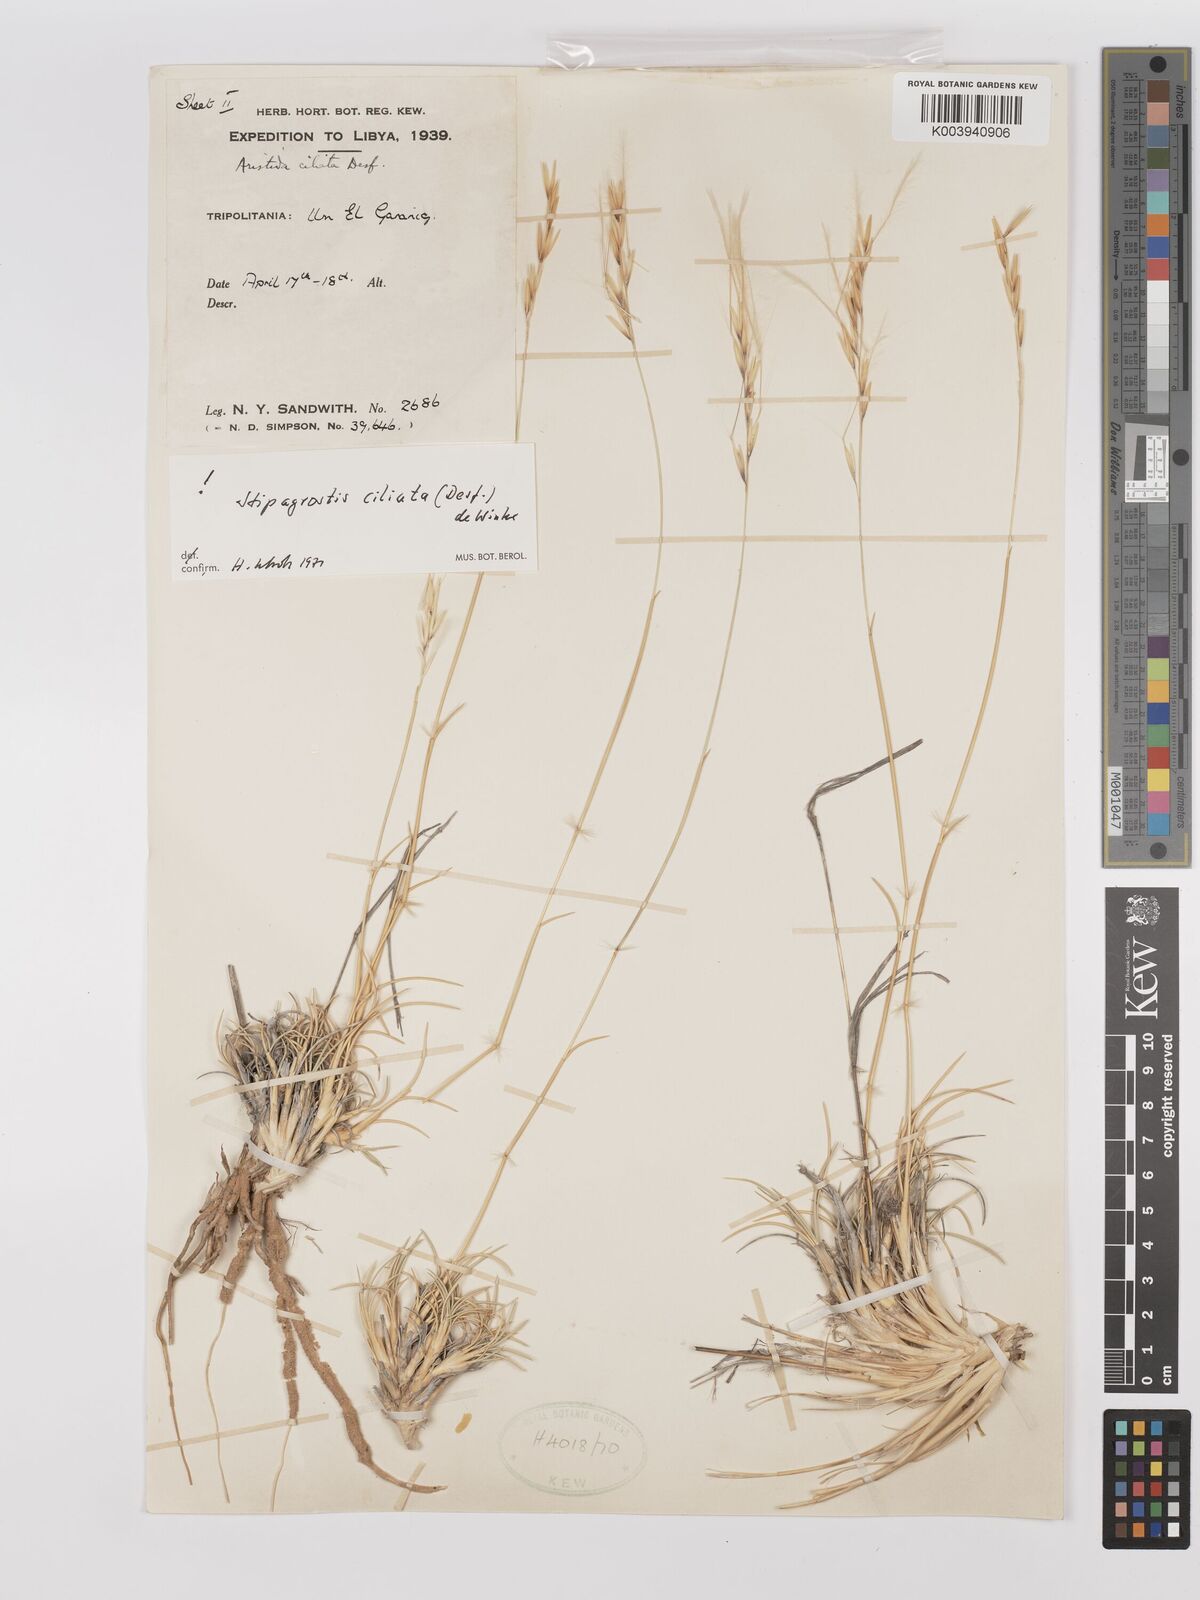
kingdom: Plantae
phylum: Tracheophyta
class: Liliopsida
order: Poales
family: Poaceae
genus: Stipagrostis
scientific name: Stipagrostis ciliata
